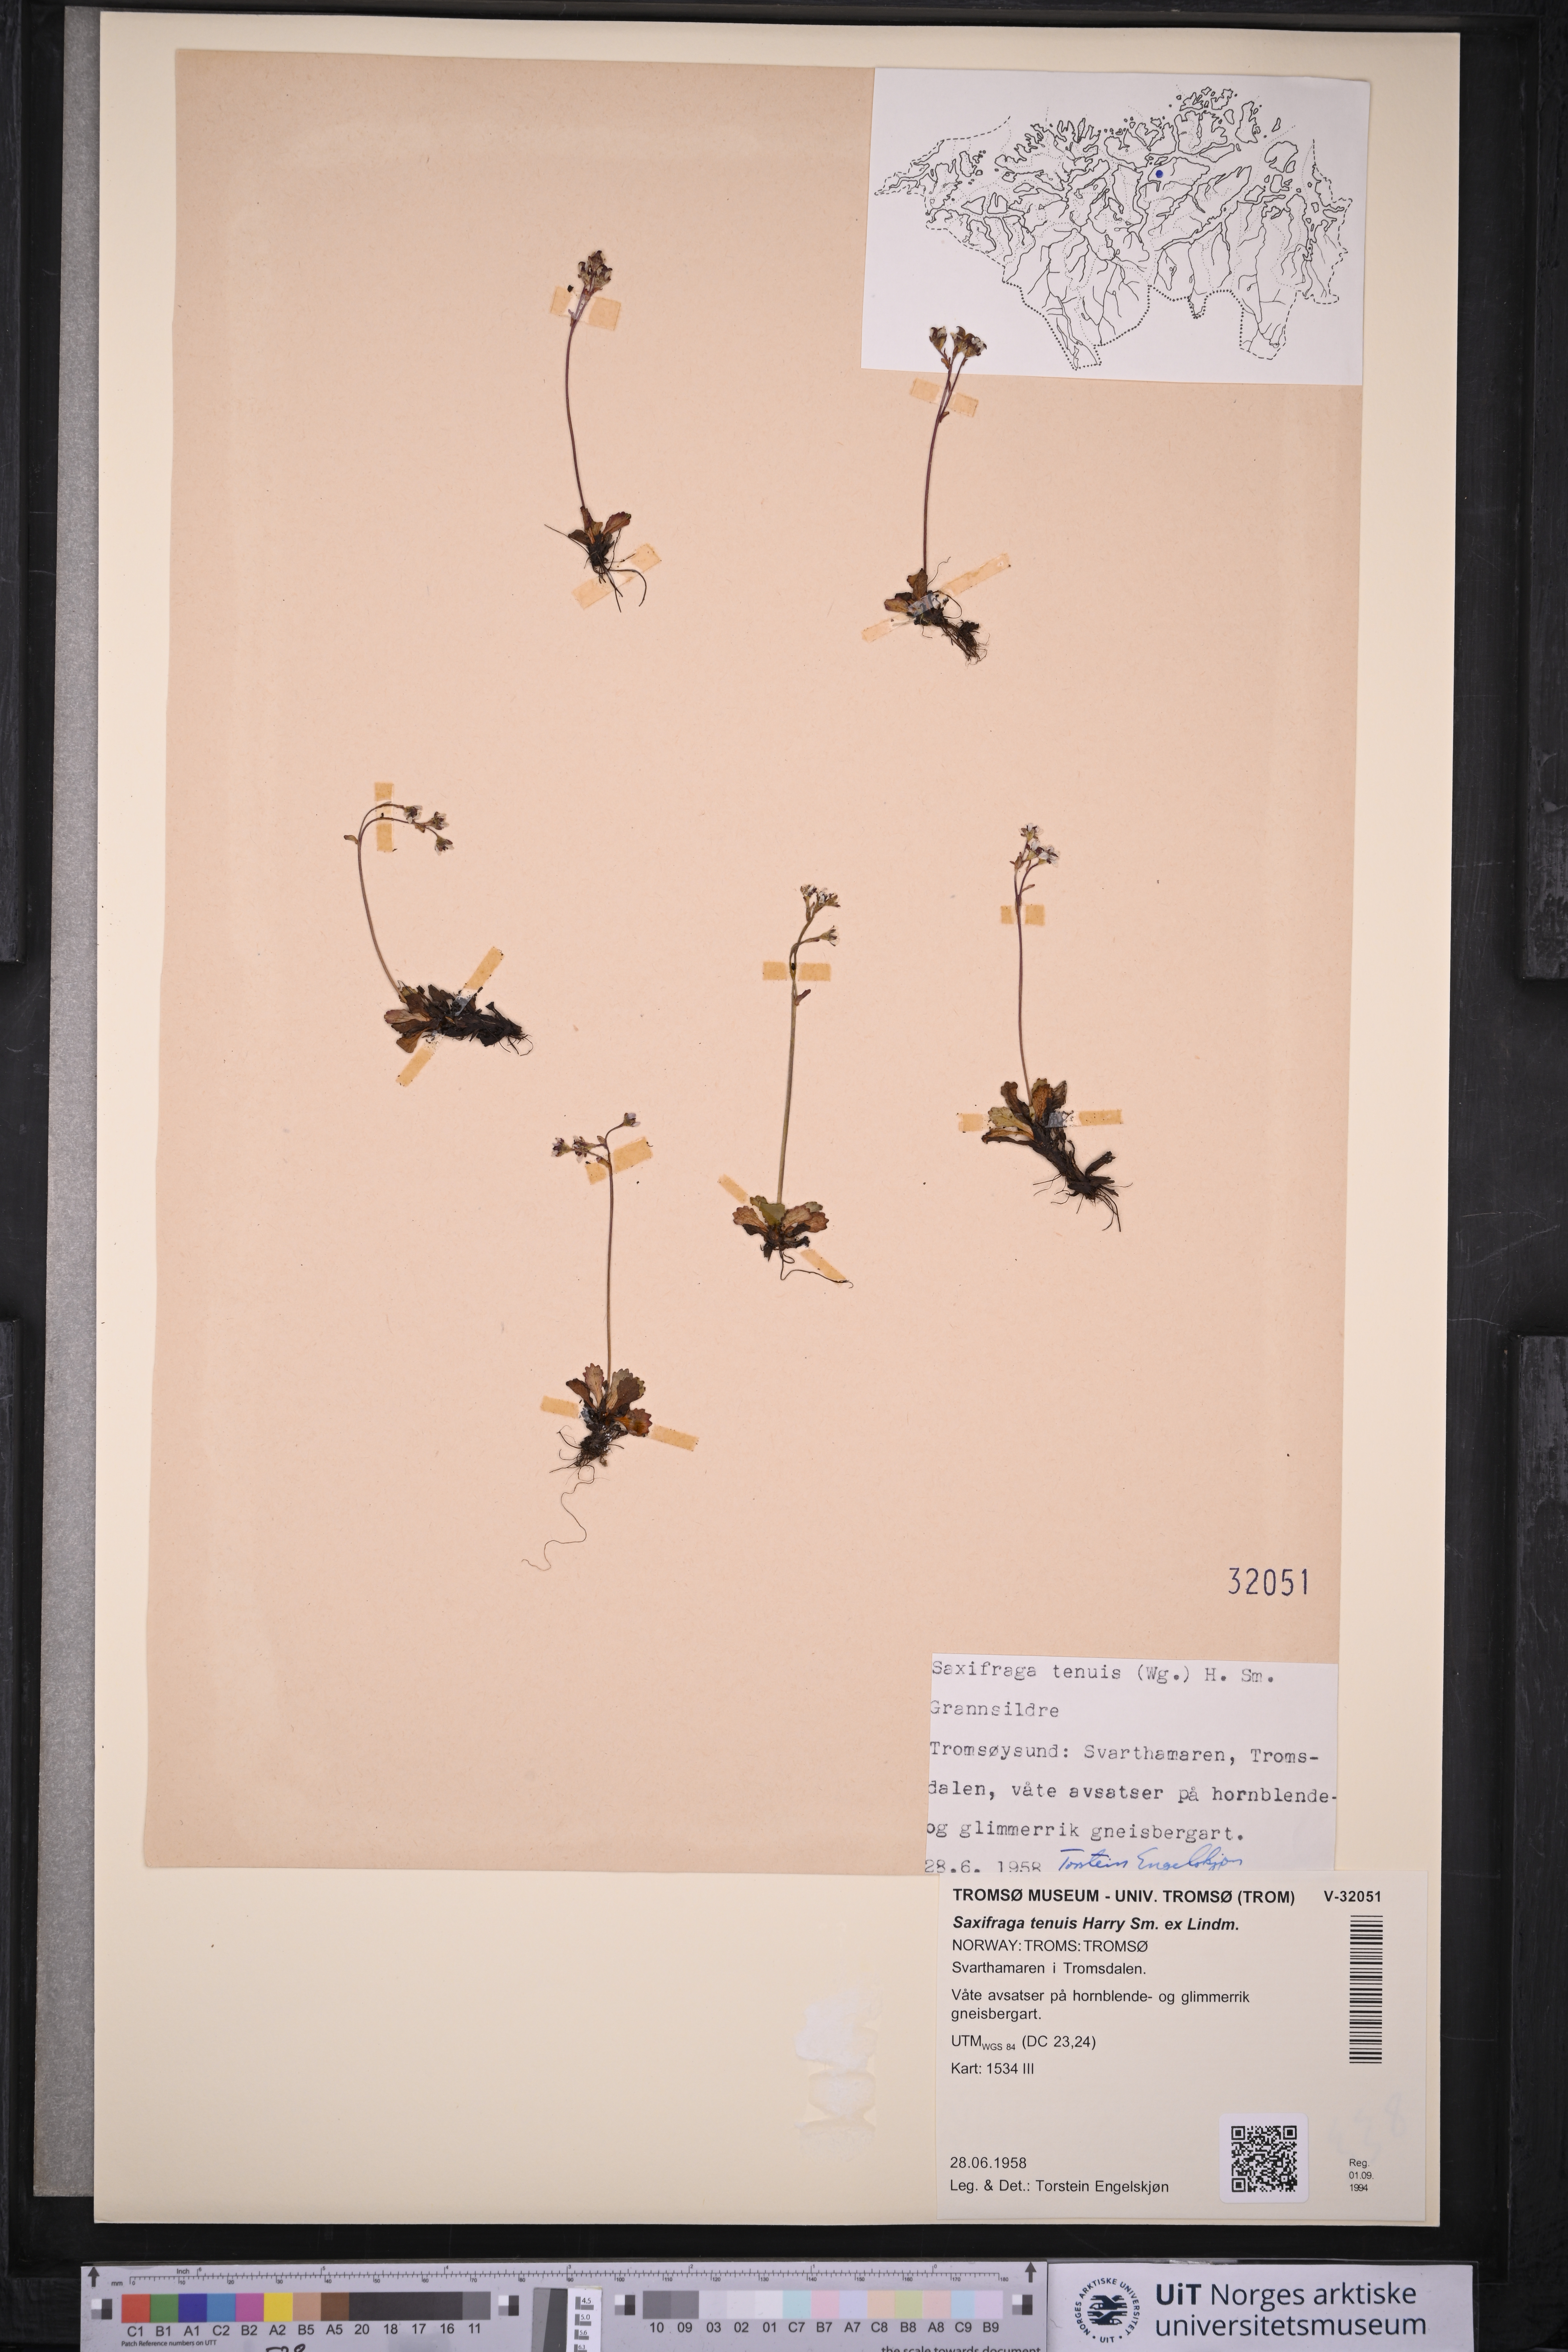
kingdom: Plantae
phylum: Tracheophyta
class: Magnoliopsida
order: Saxifragales
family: Saxifragaceae
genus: Micranthes
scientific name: Micranthes tenuis
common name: Ottertail pass saxifrage
